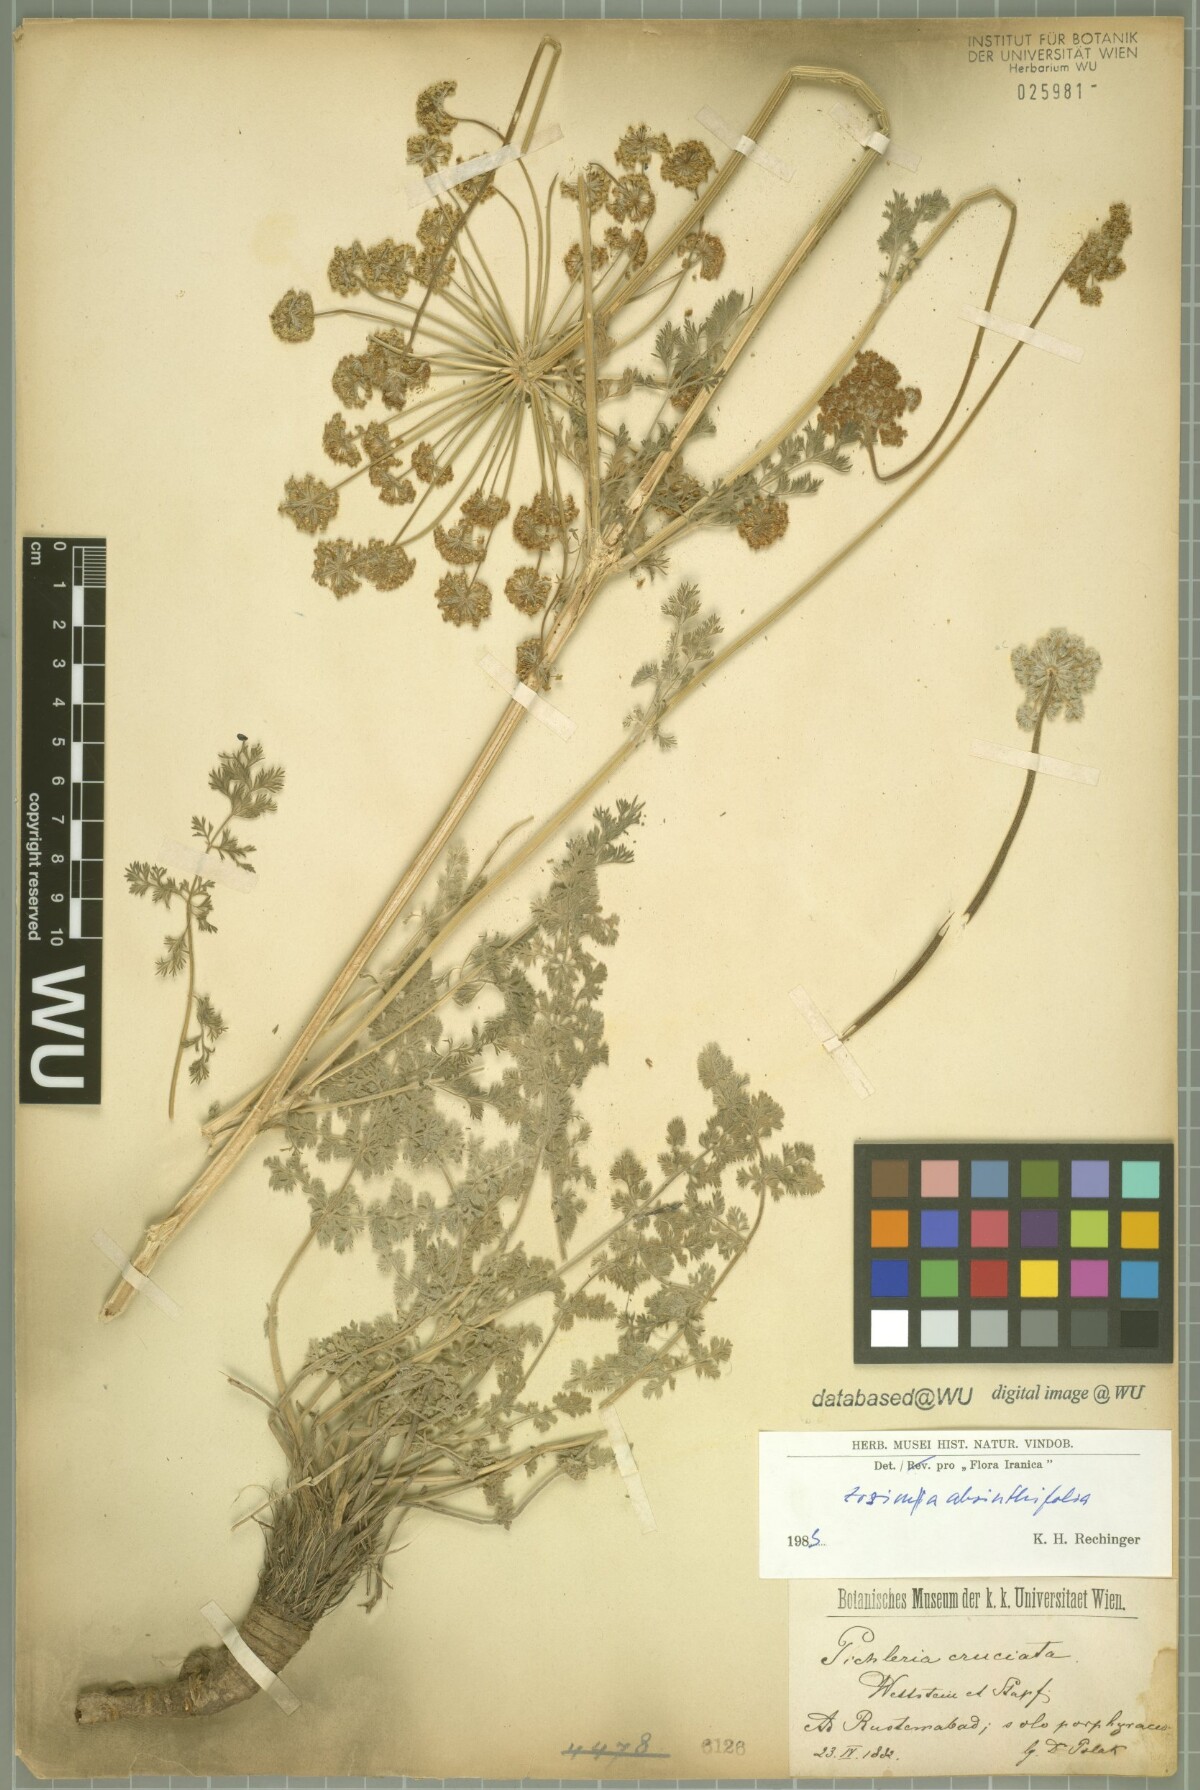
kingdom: Plantae
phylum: Tracheophyta
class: Magnoliopsida
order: Apiales
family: Apiaceae
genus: Zosima
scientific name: Zosima absinthiifolia
